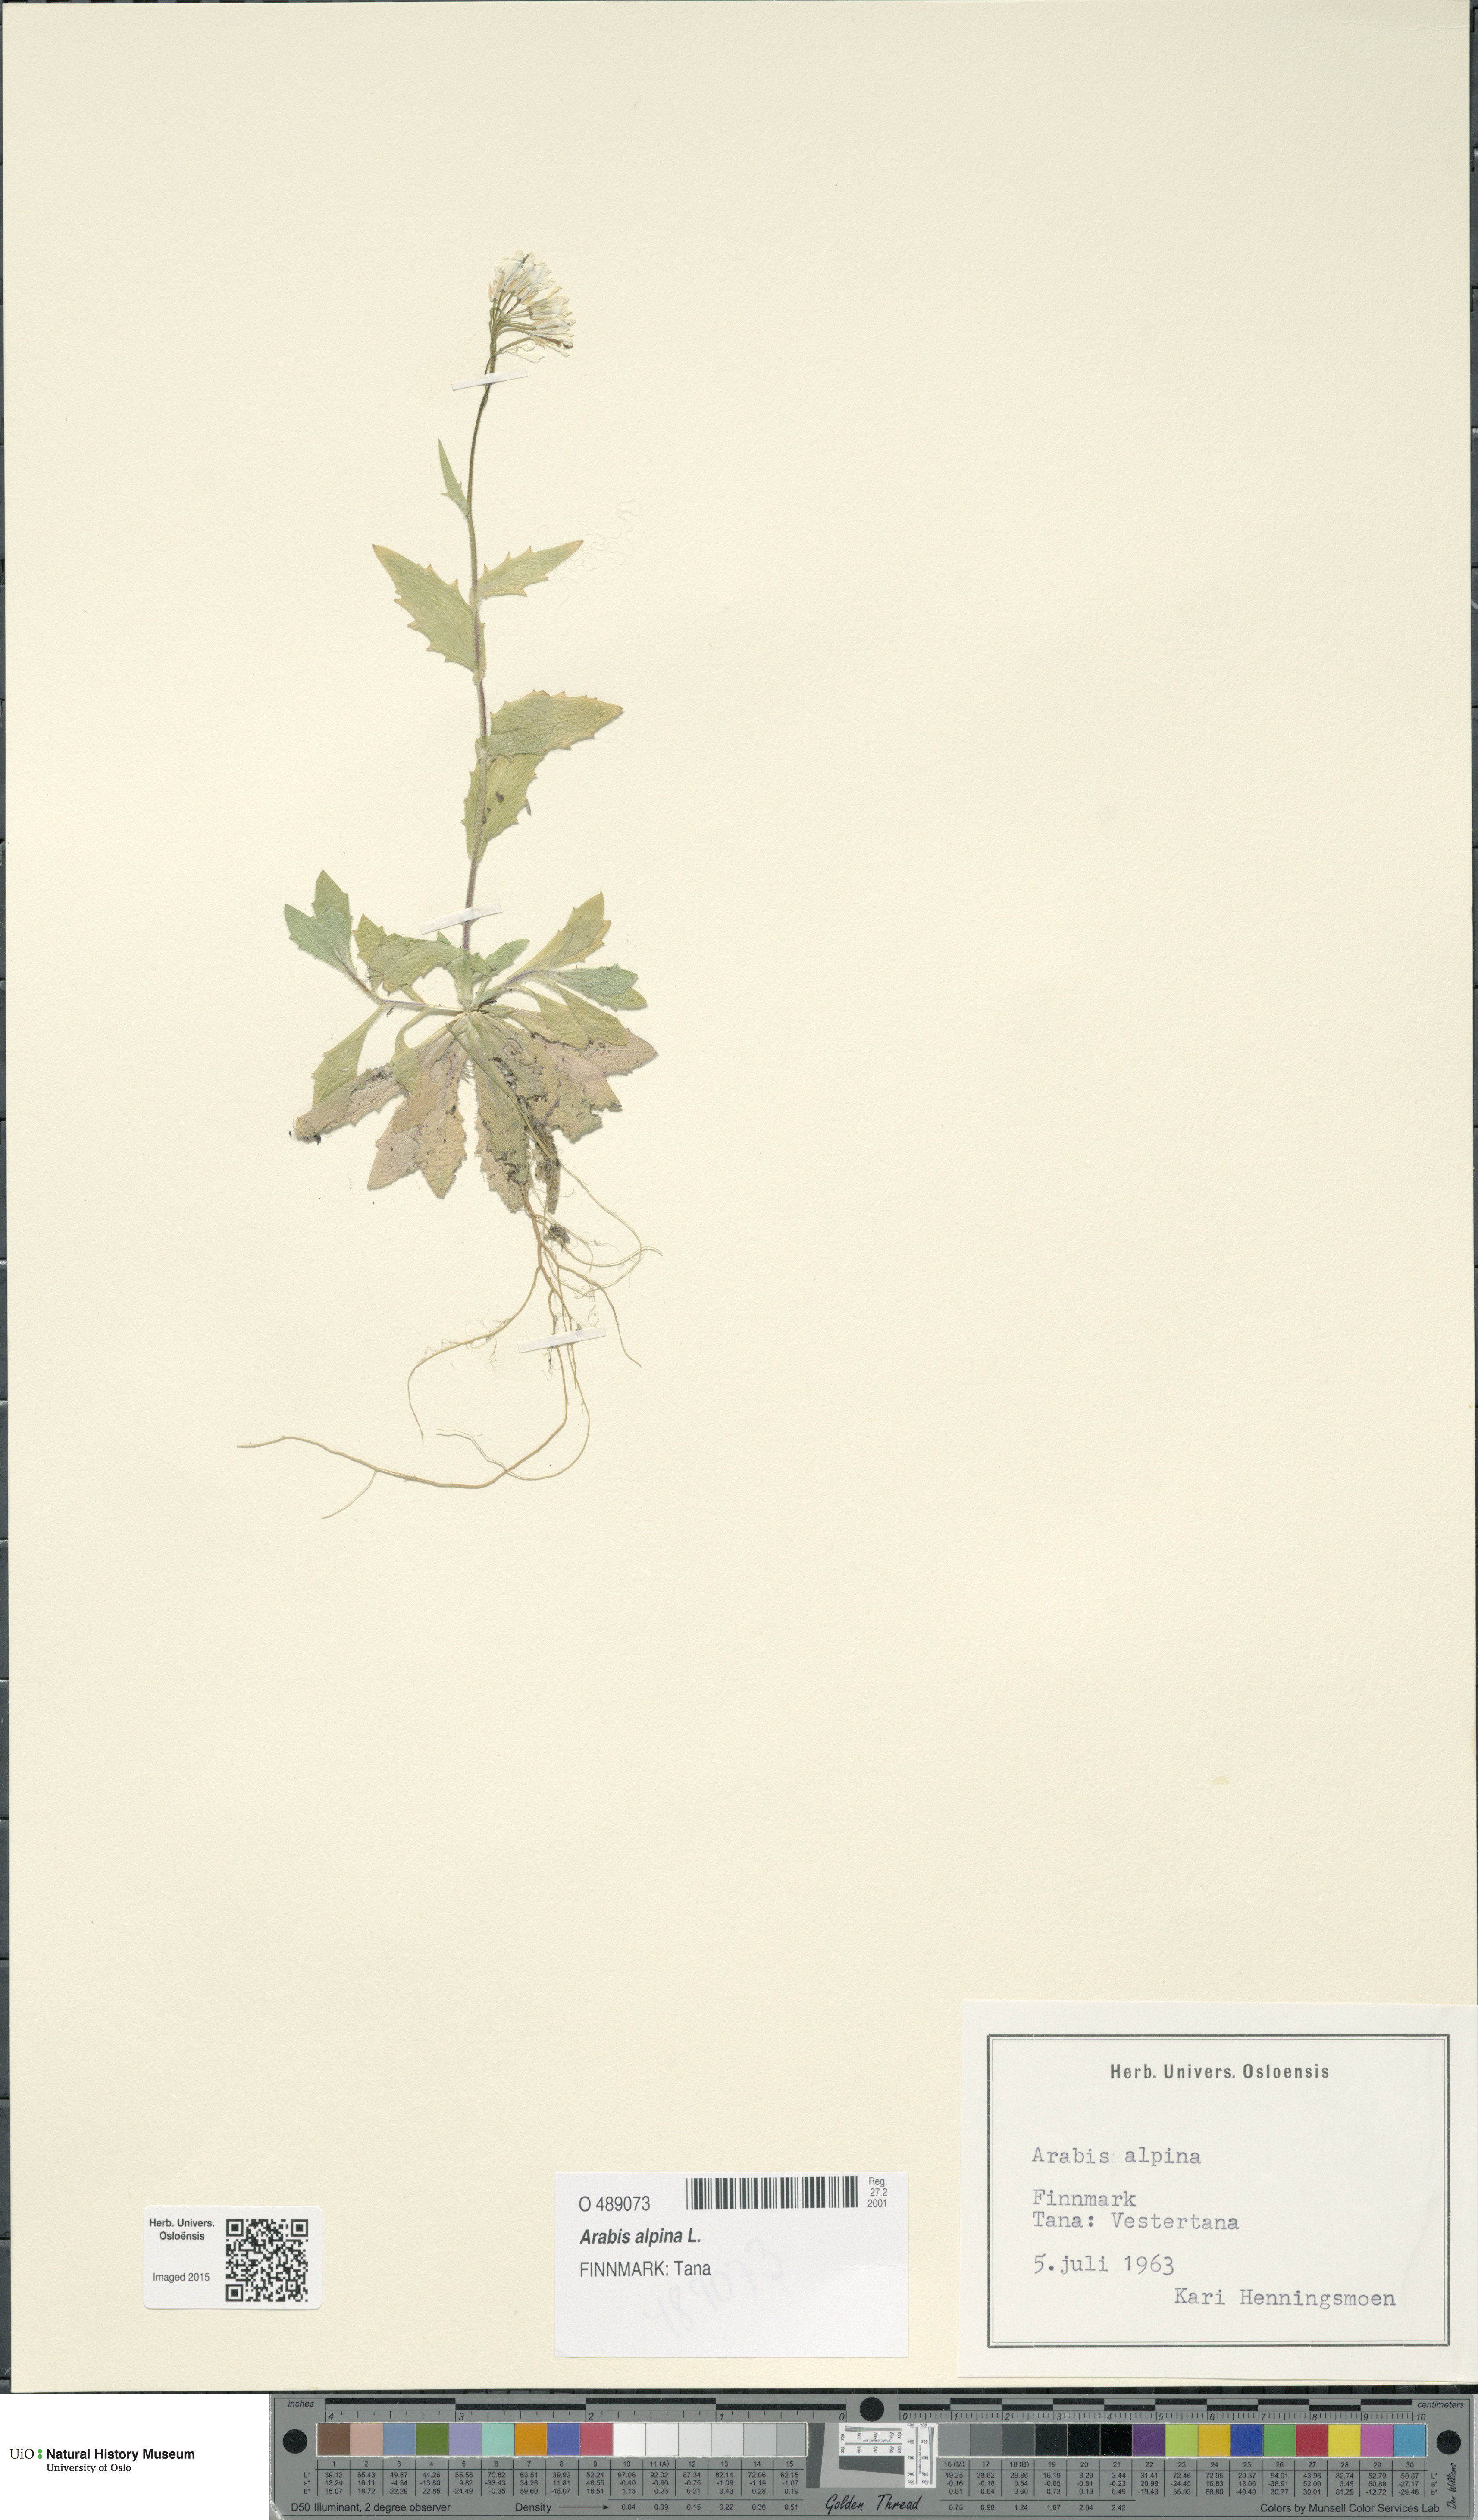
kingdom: Plantae
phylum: Tracheophyta
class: Magnoliopsida
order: Brassicales
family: Brassicaceae
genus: Arabis
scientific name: Arabis alpina
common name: Alpine rock-cress
